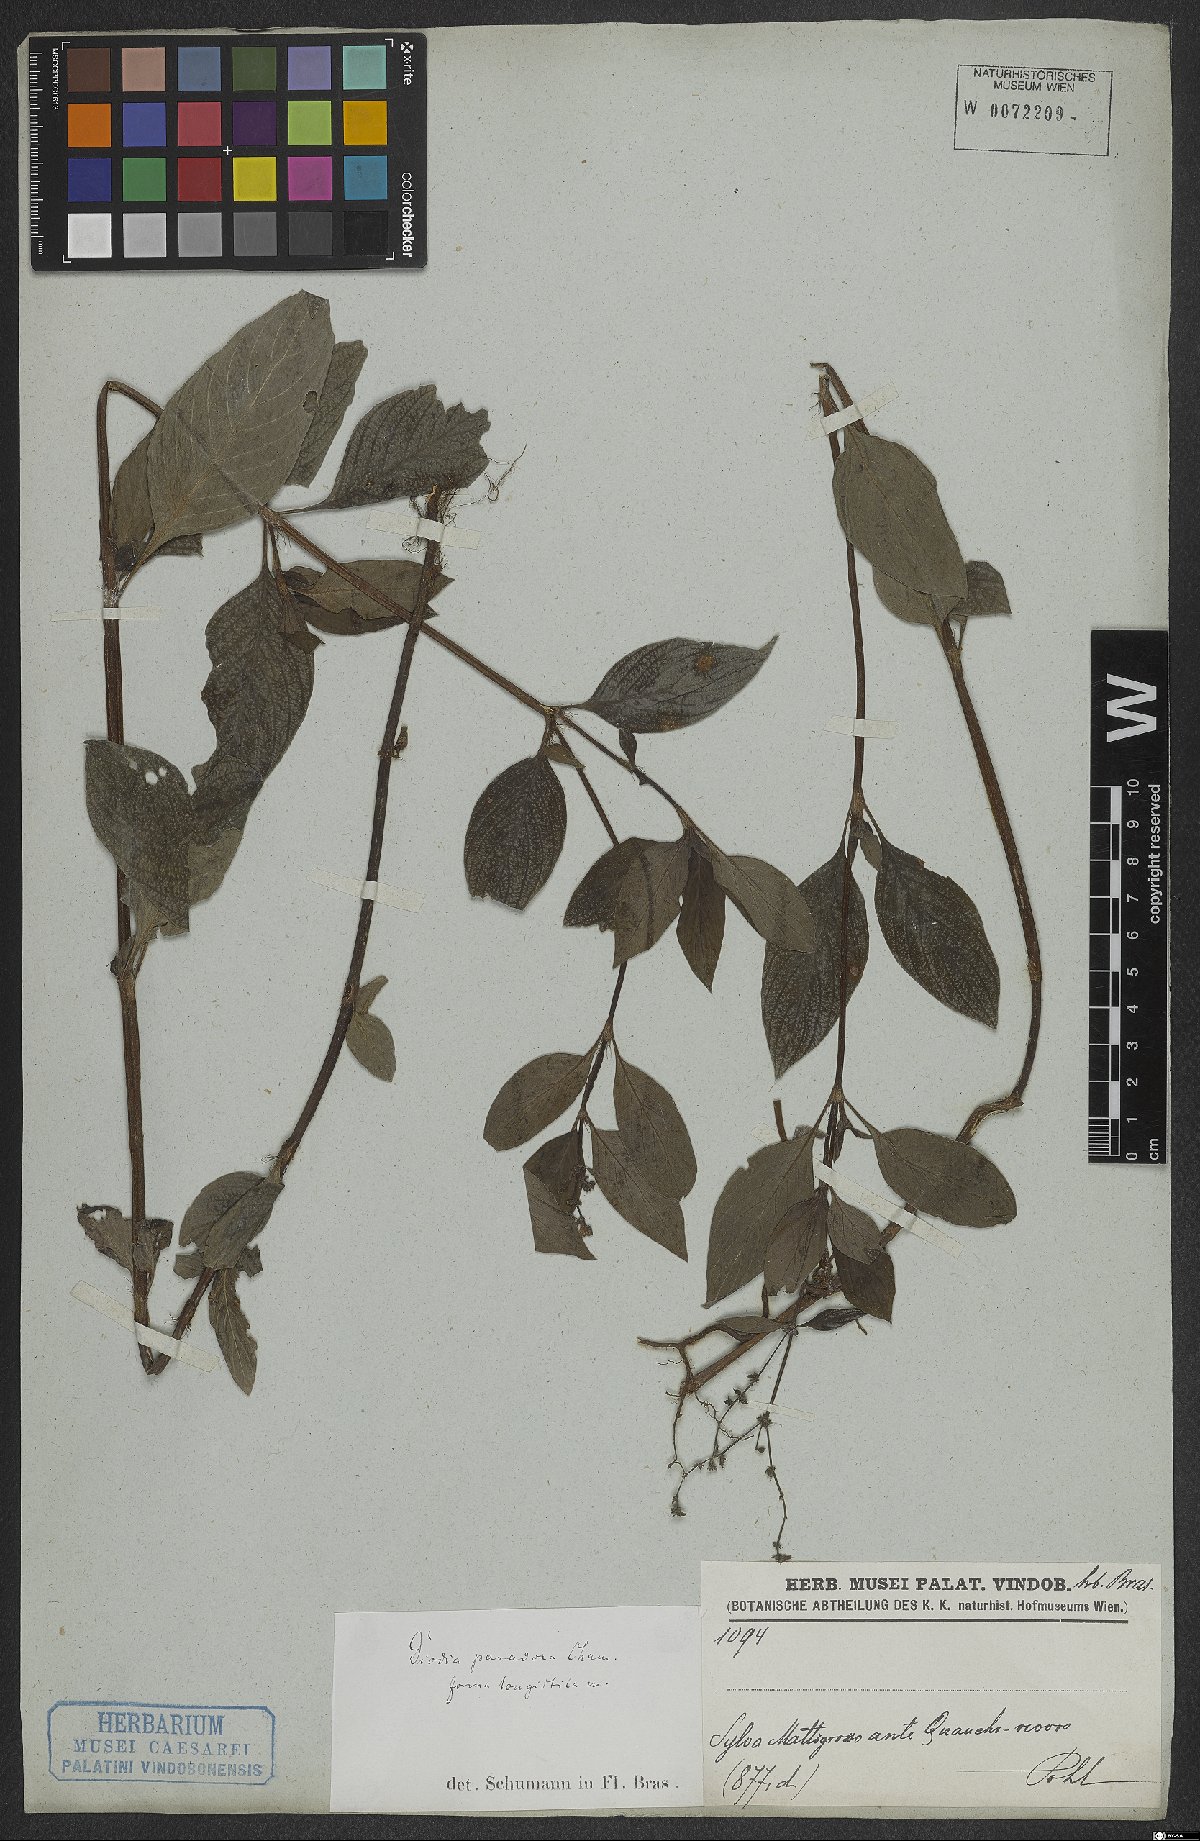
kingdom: Plantae
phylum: Tracheophyta
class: Magnoliopsida
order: Gentianales
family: Rubiaceae
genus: Galianthe
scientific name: Galianthe hispidula
